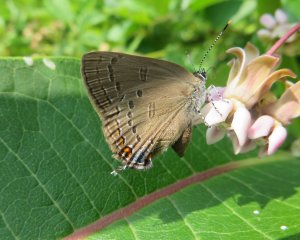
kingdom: Animalia
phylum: Arthropoda
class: Insecta
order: Lepidoptera
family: Lycaenidae
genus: Satyrium
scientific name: Satyrium edwardsii
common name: Edwards' Hairstreak
